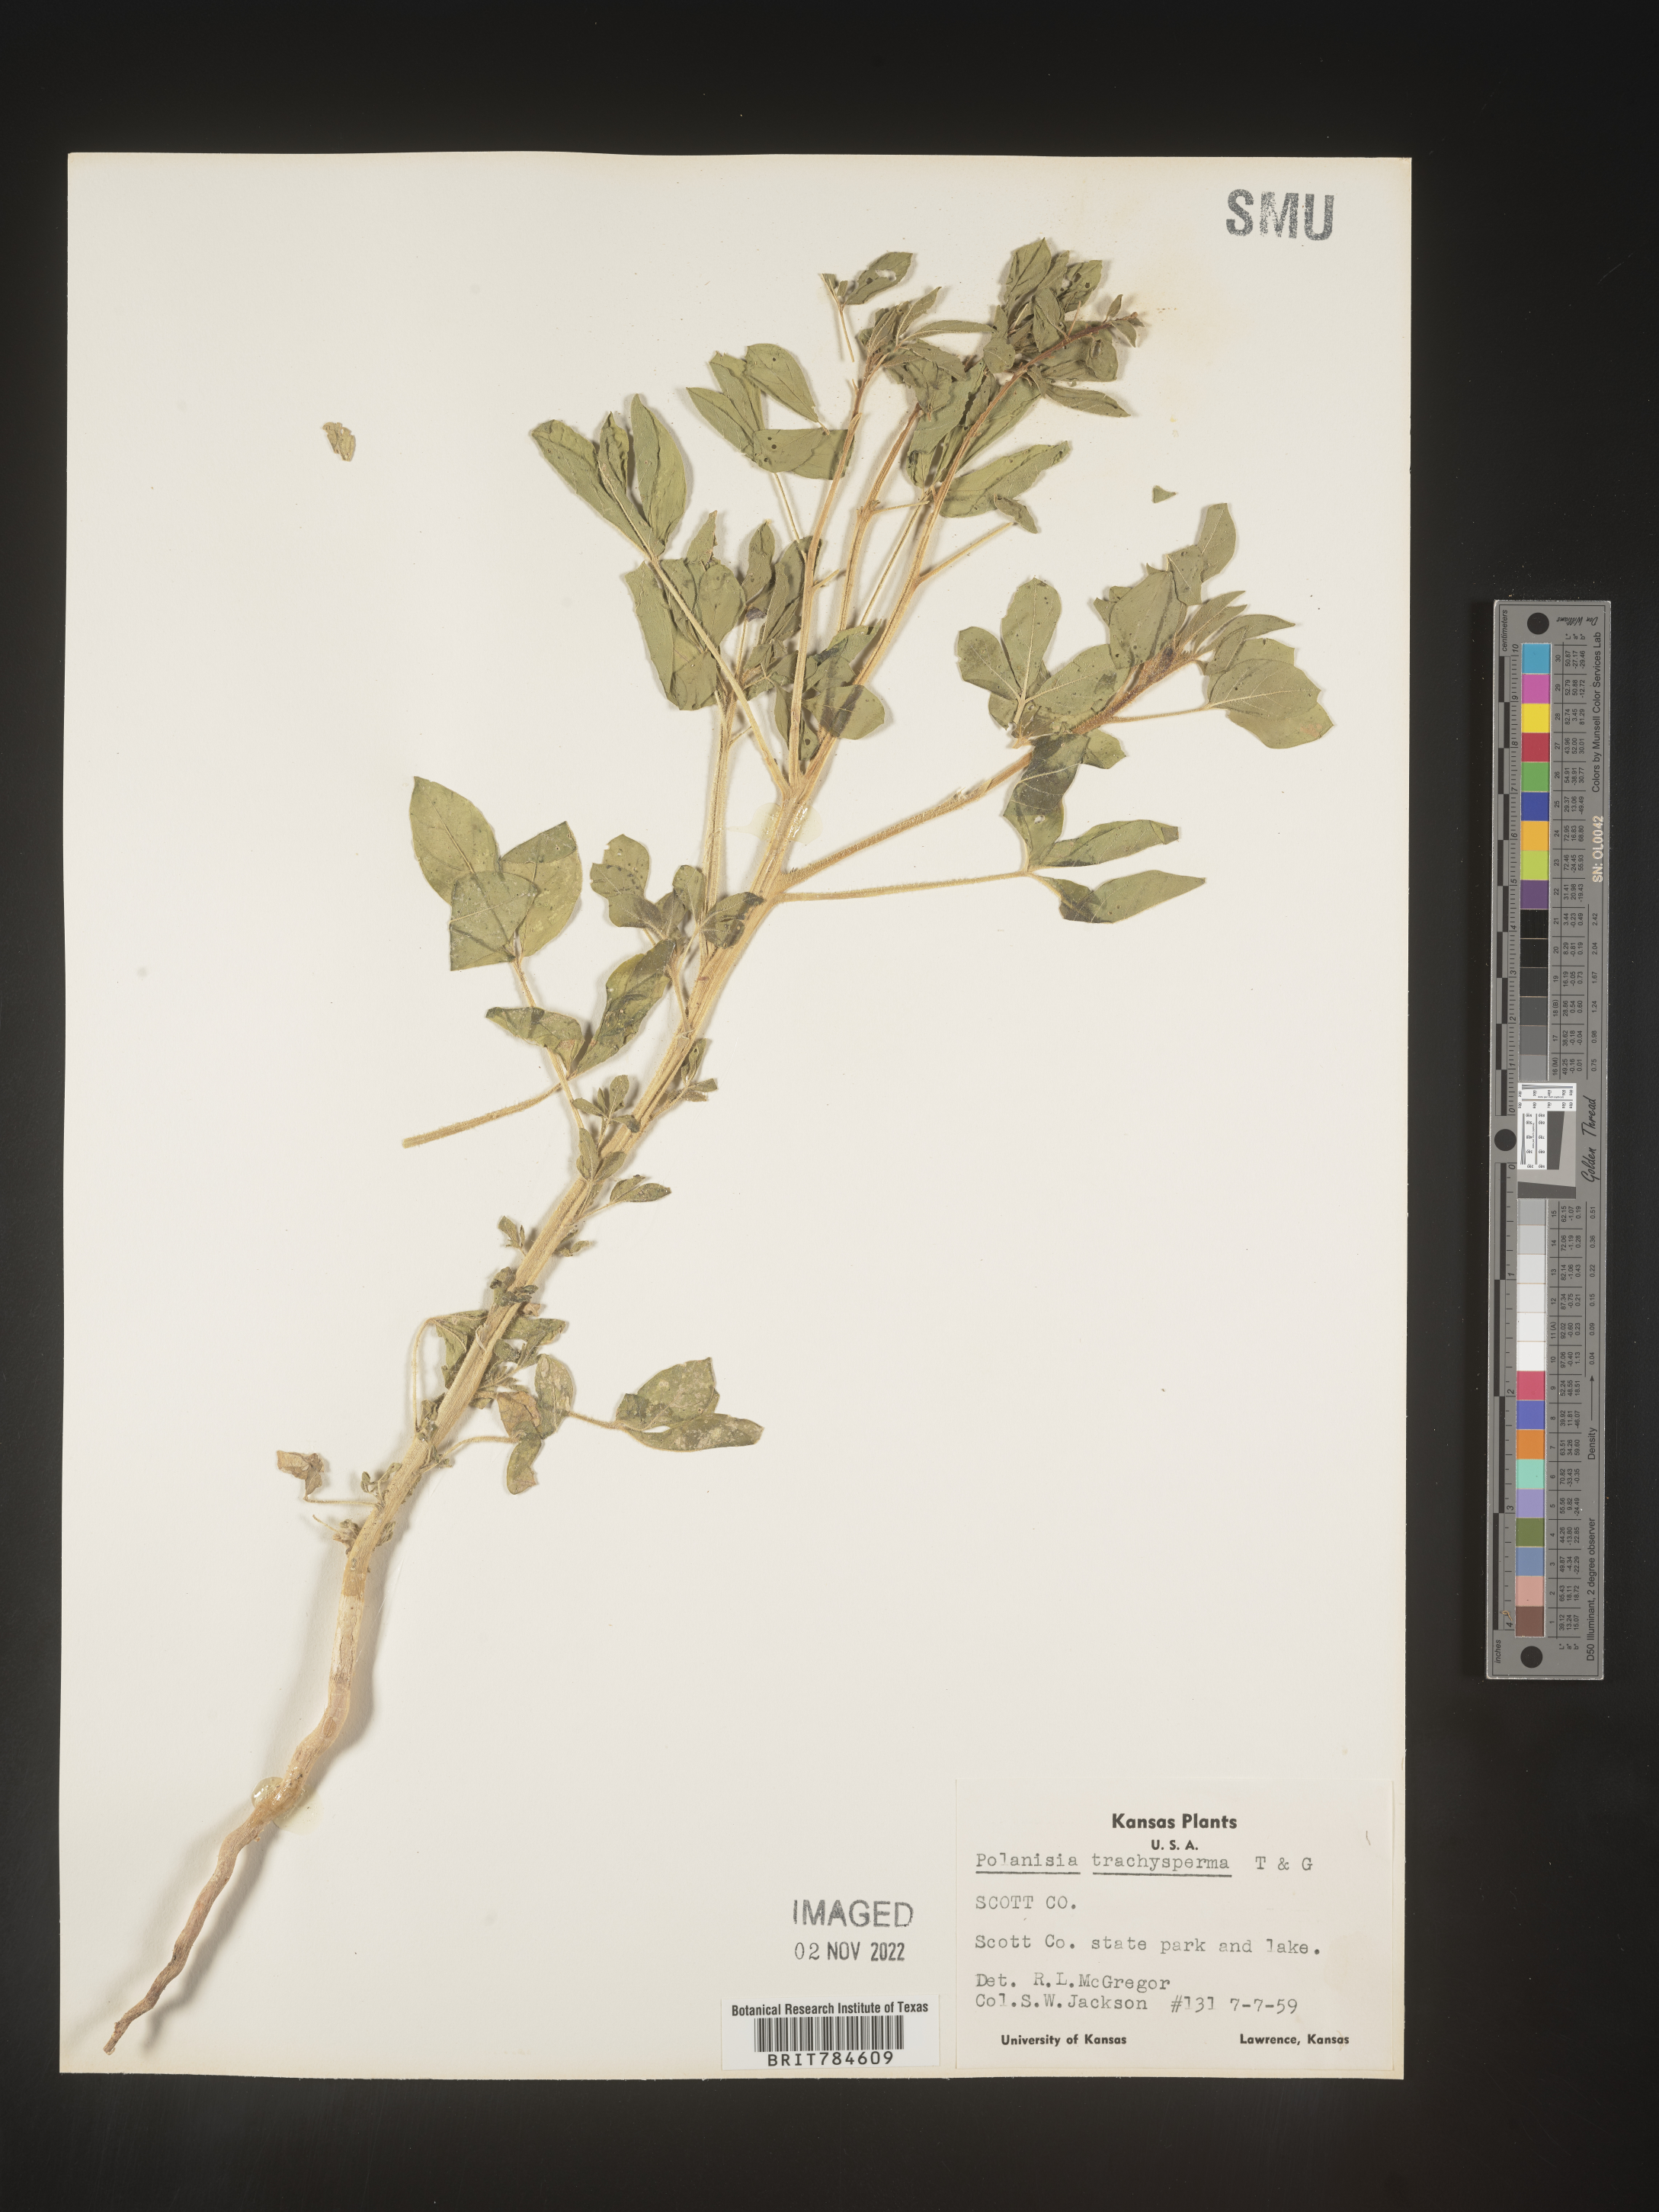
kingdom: Plantae
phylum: Tracheophyta
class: Magnoliopsida
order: Brassicales
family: Cleomaceae
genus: Polanisia
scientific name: Polanisia dodecandra
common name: Clammyweed
